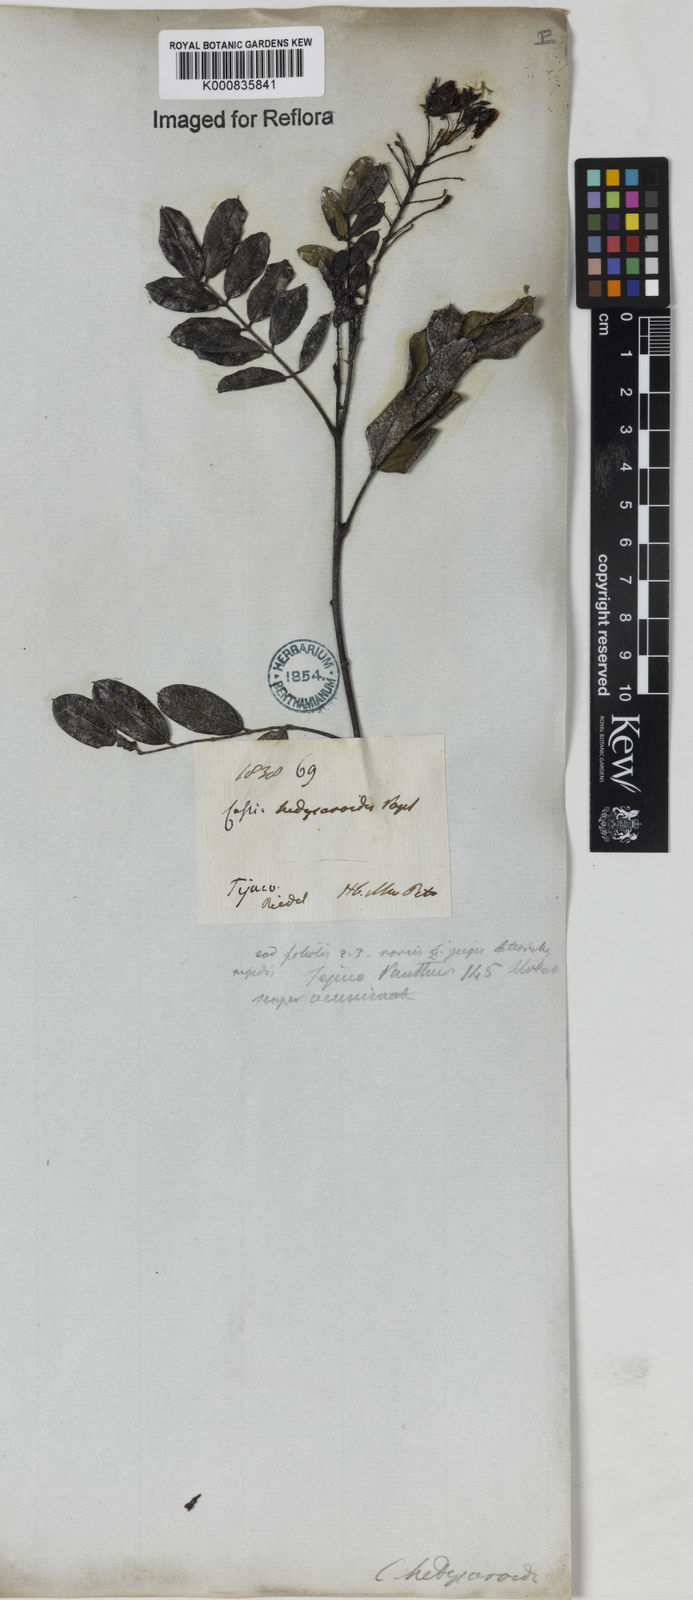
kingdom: Plantae
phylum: Tracheophyta
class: Magnoliopsida
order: Fabales
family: Fabaceae
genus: Chamaecrista
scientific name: Chamaecrista hedysaroides
